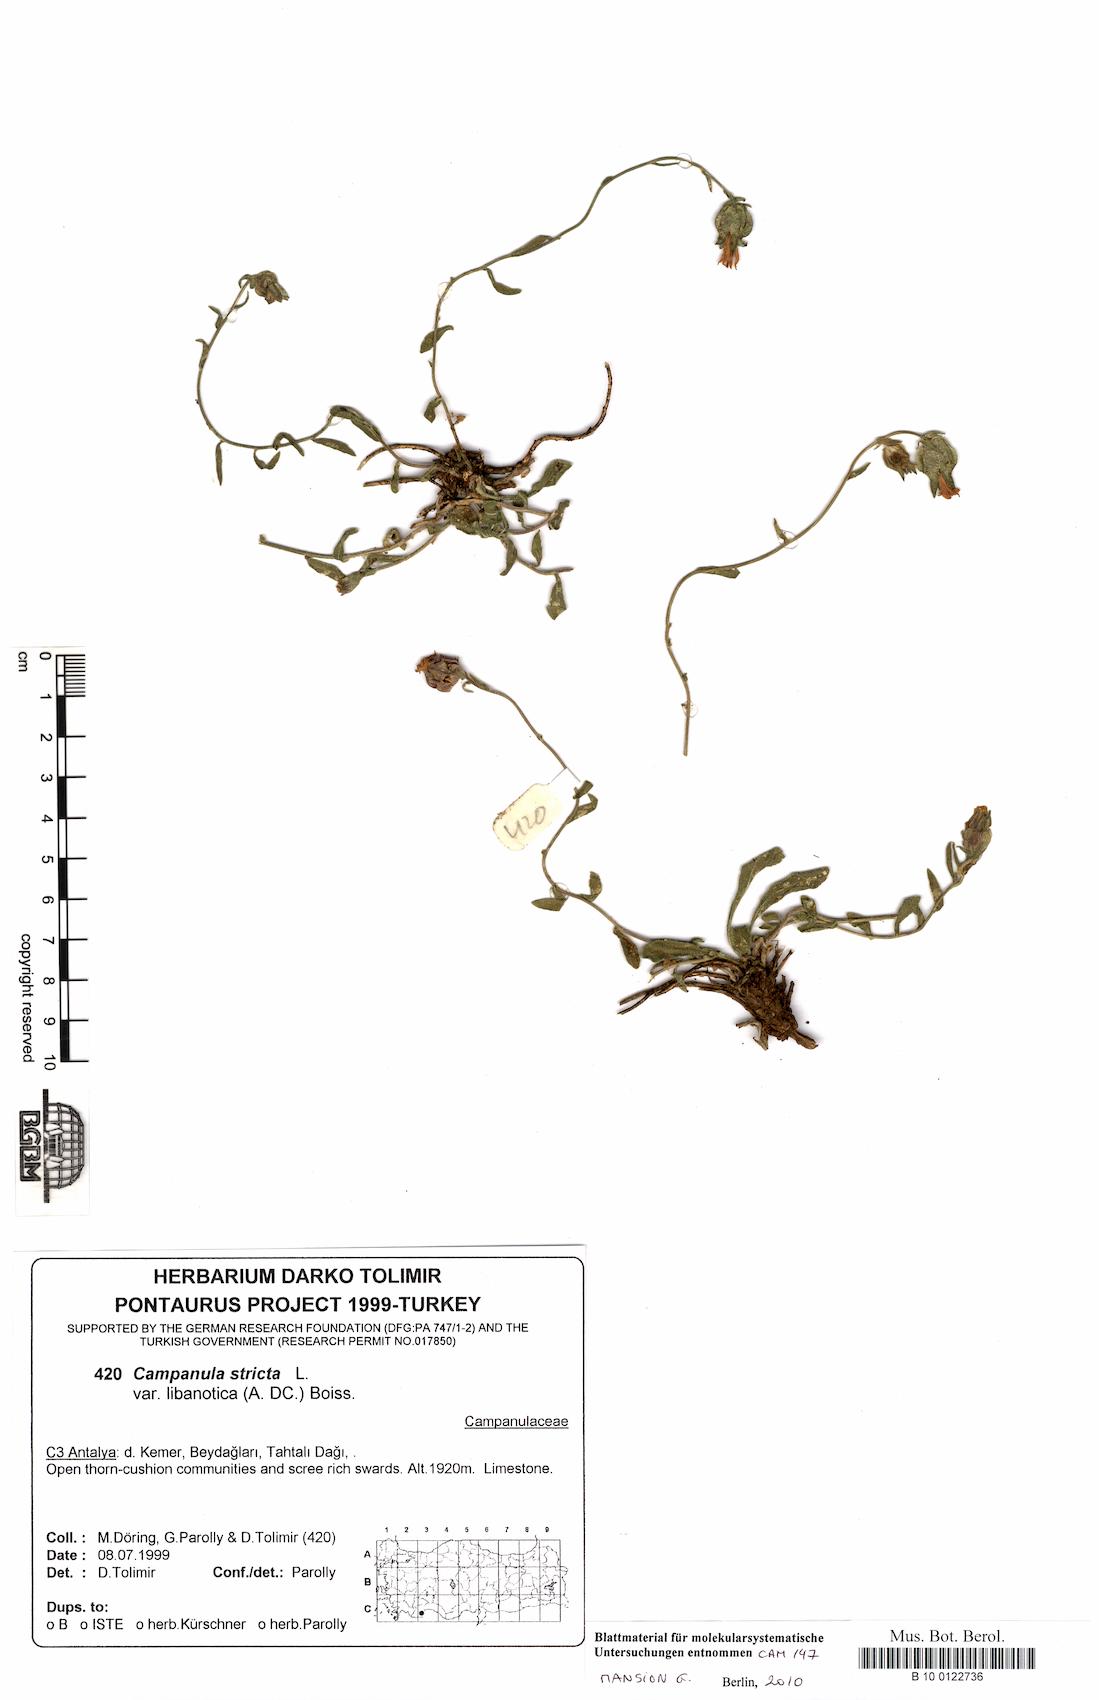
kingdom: Plantae
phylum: Tracheophyta
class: Magnoliopsida
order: Asterales
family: Campanulaceae
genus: Campanula
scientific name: Campanula stricta
